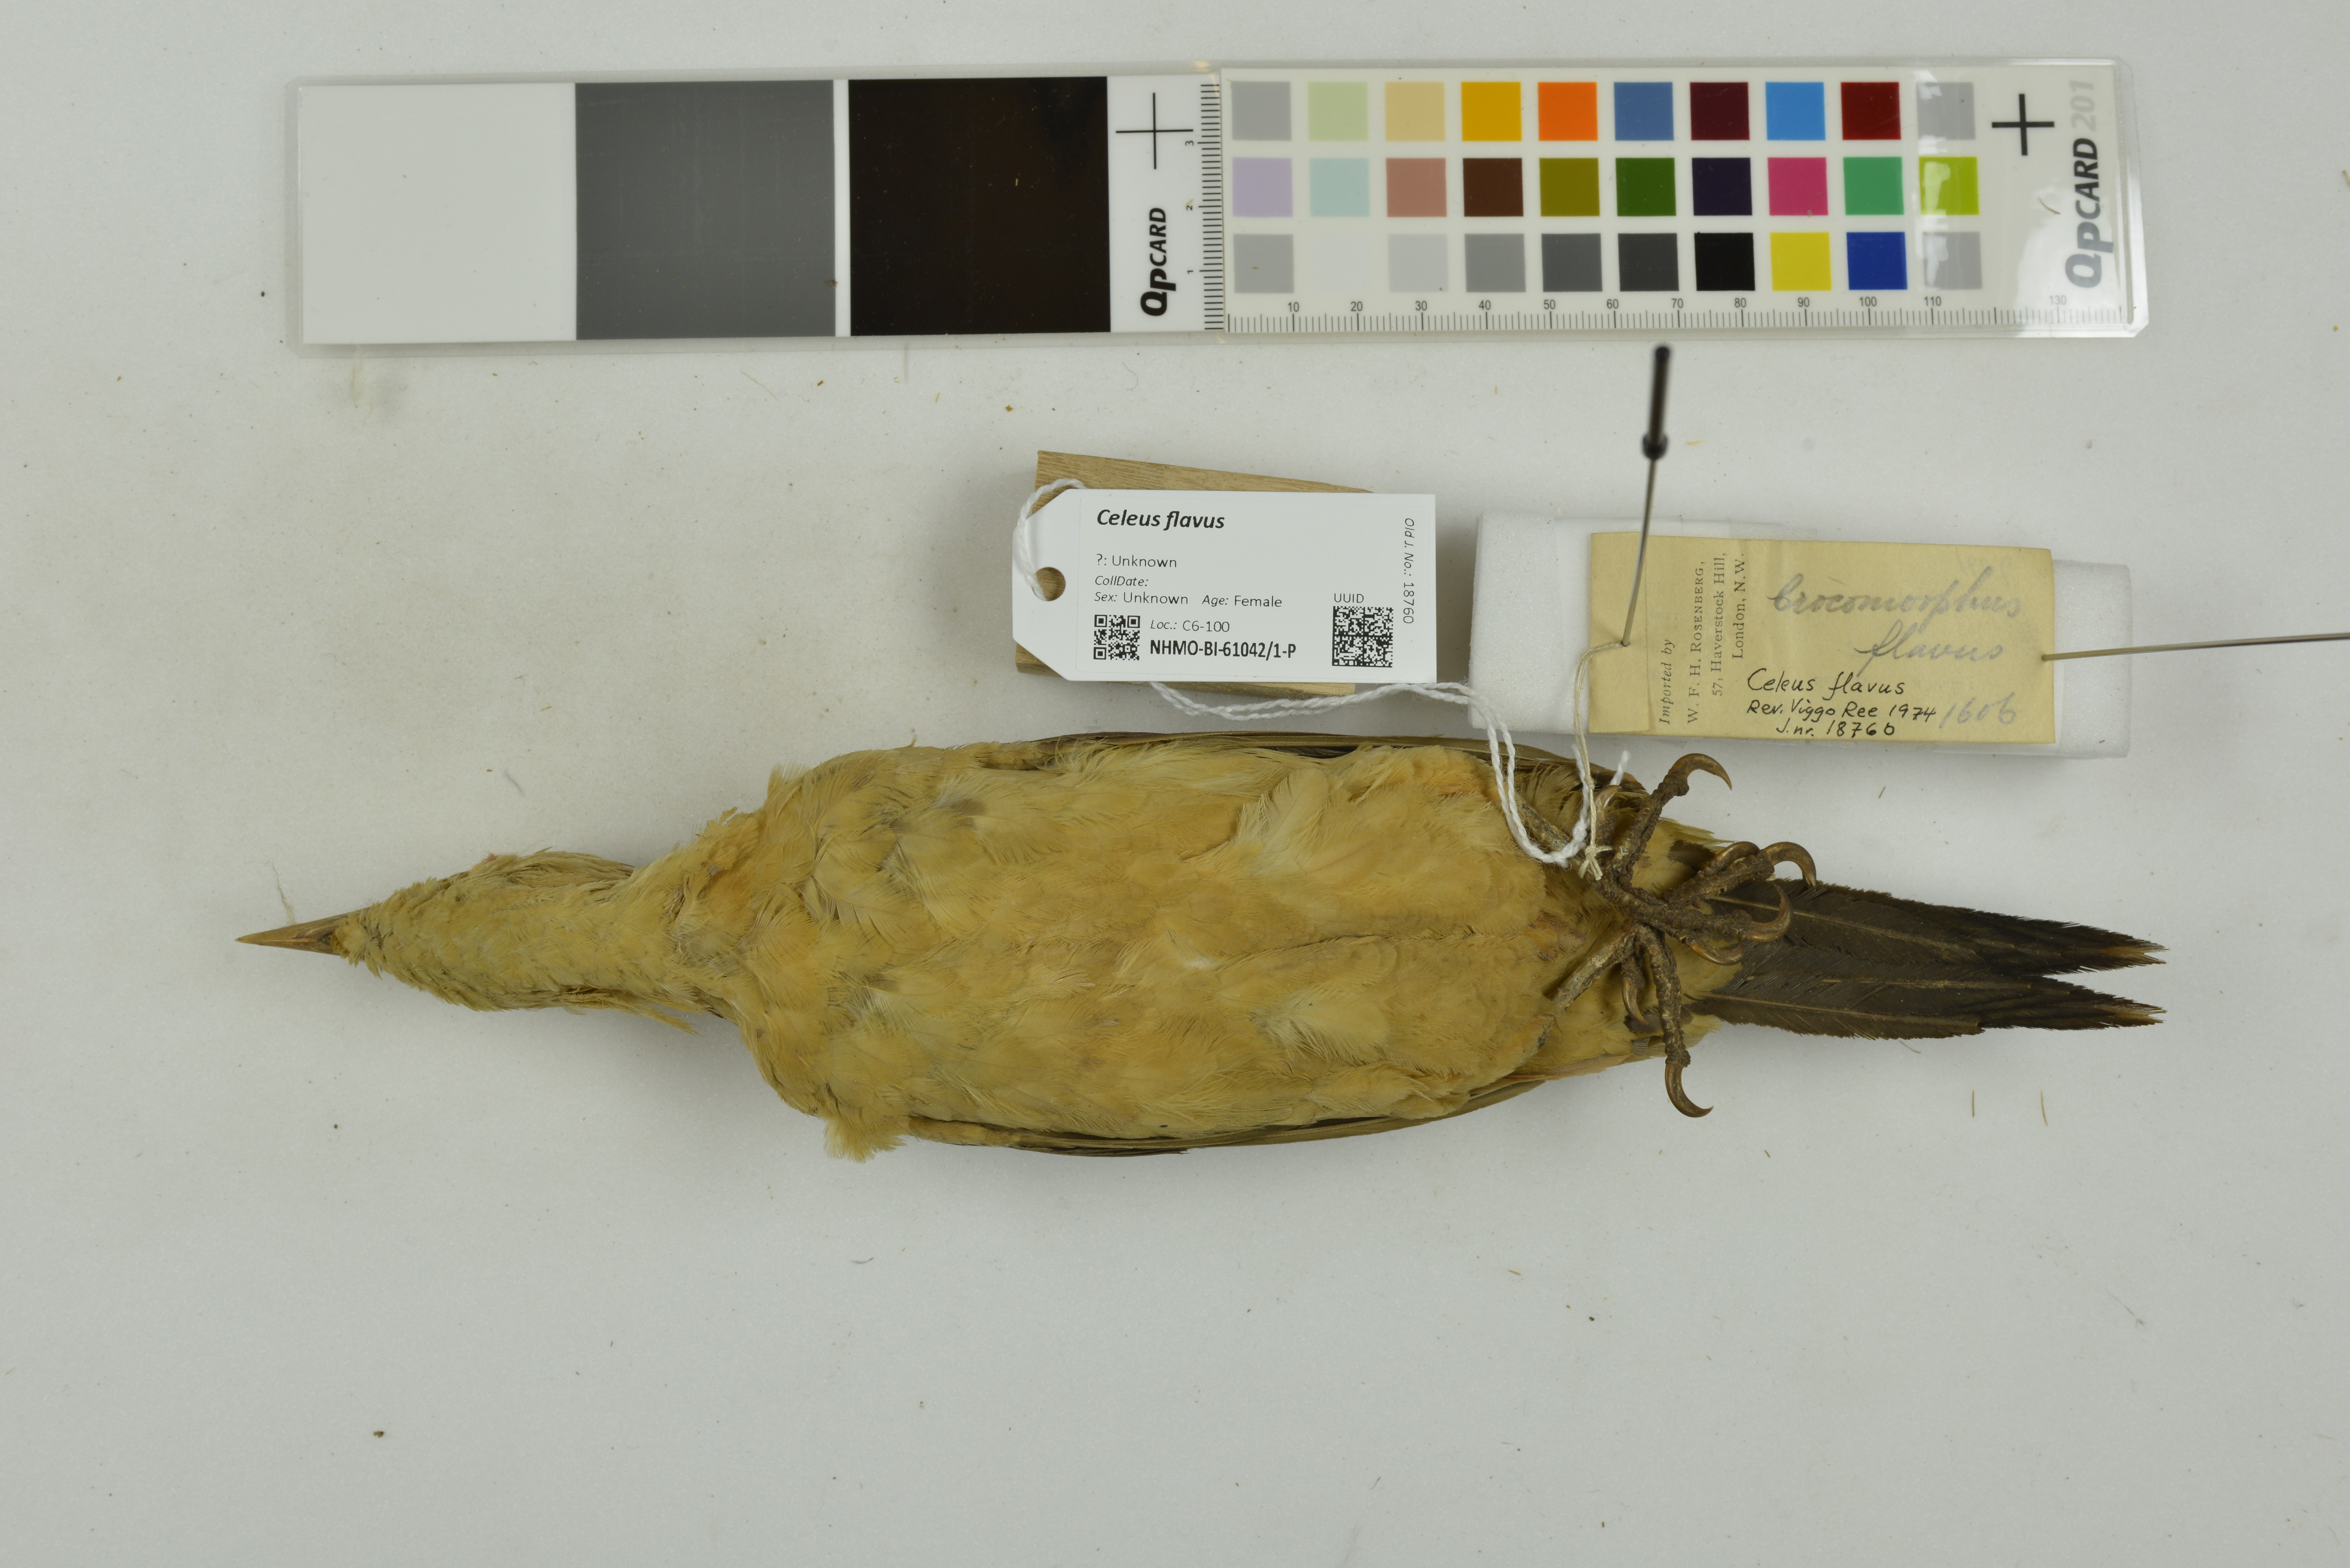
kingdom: Animalia
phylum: Chordata
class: Aves
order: Piciformes
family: Picidae
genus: Celeus
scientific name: Celeus flavus
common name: Cream-colored woodpecker
